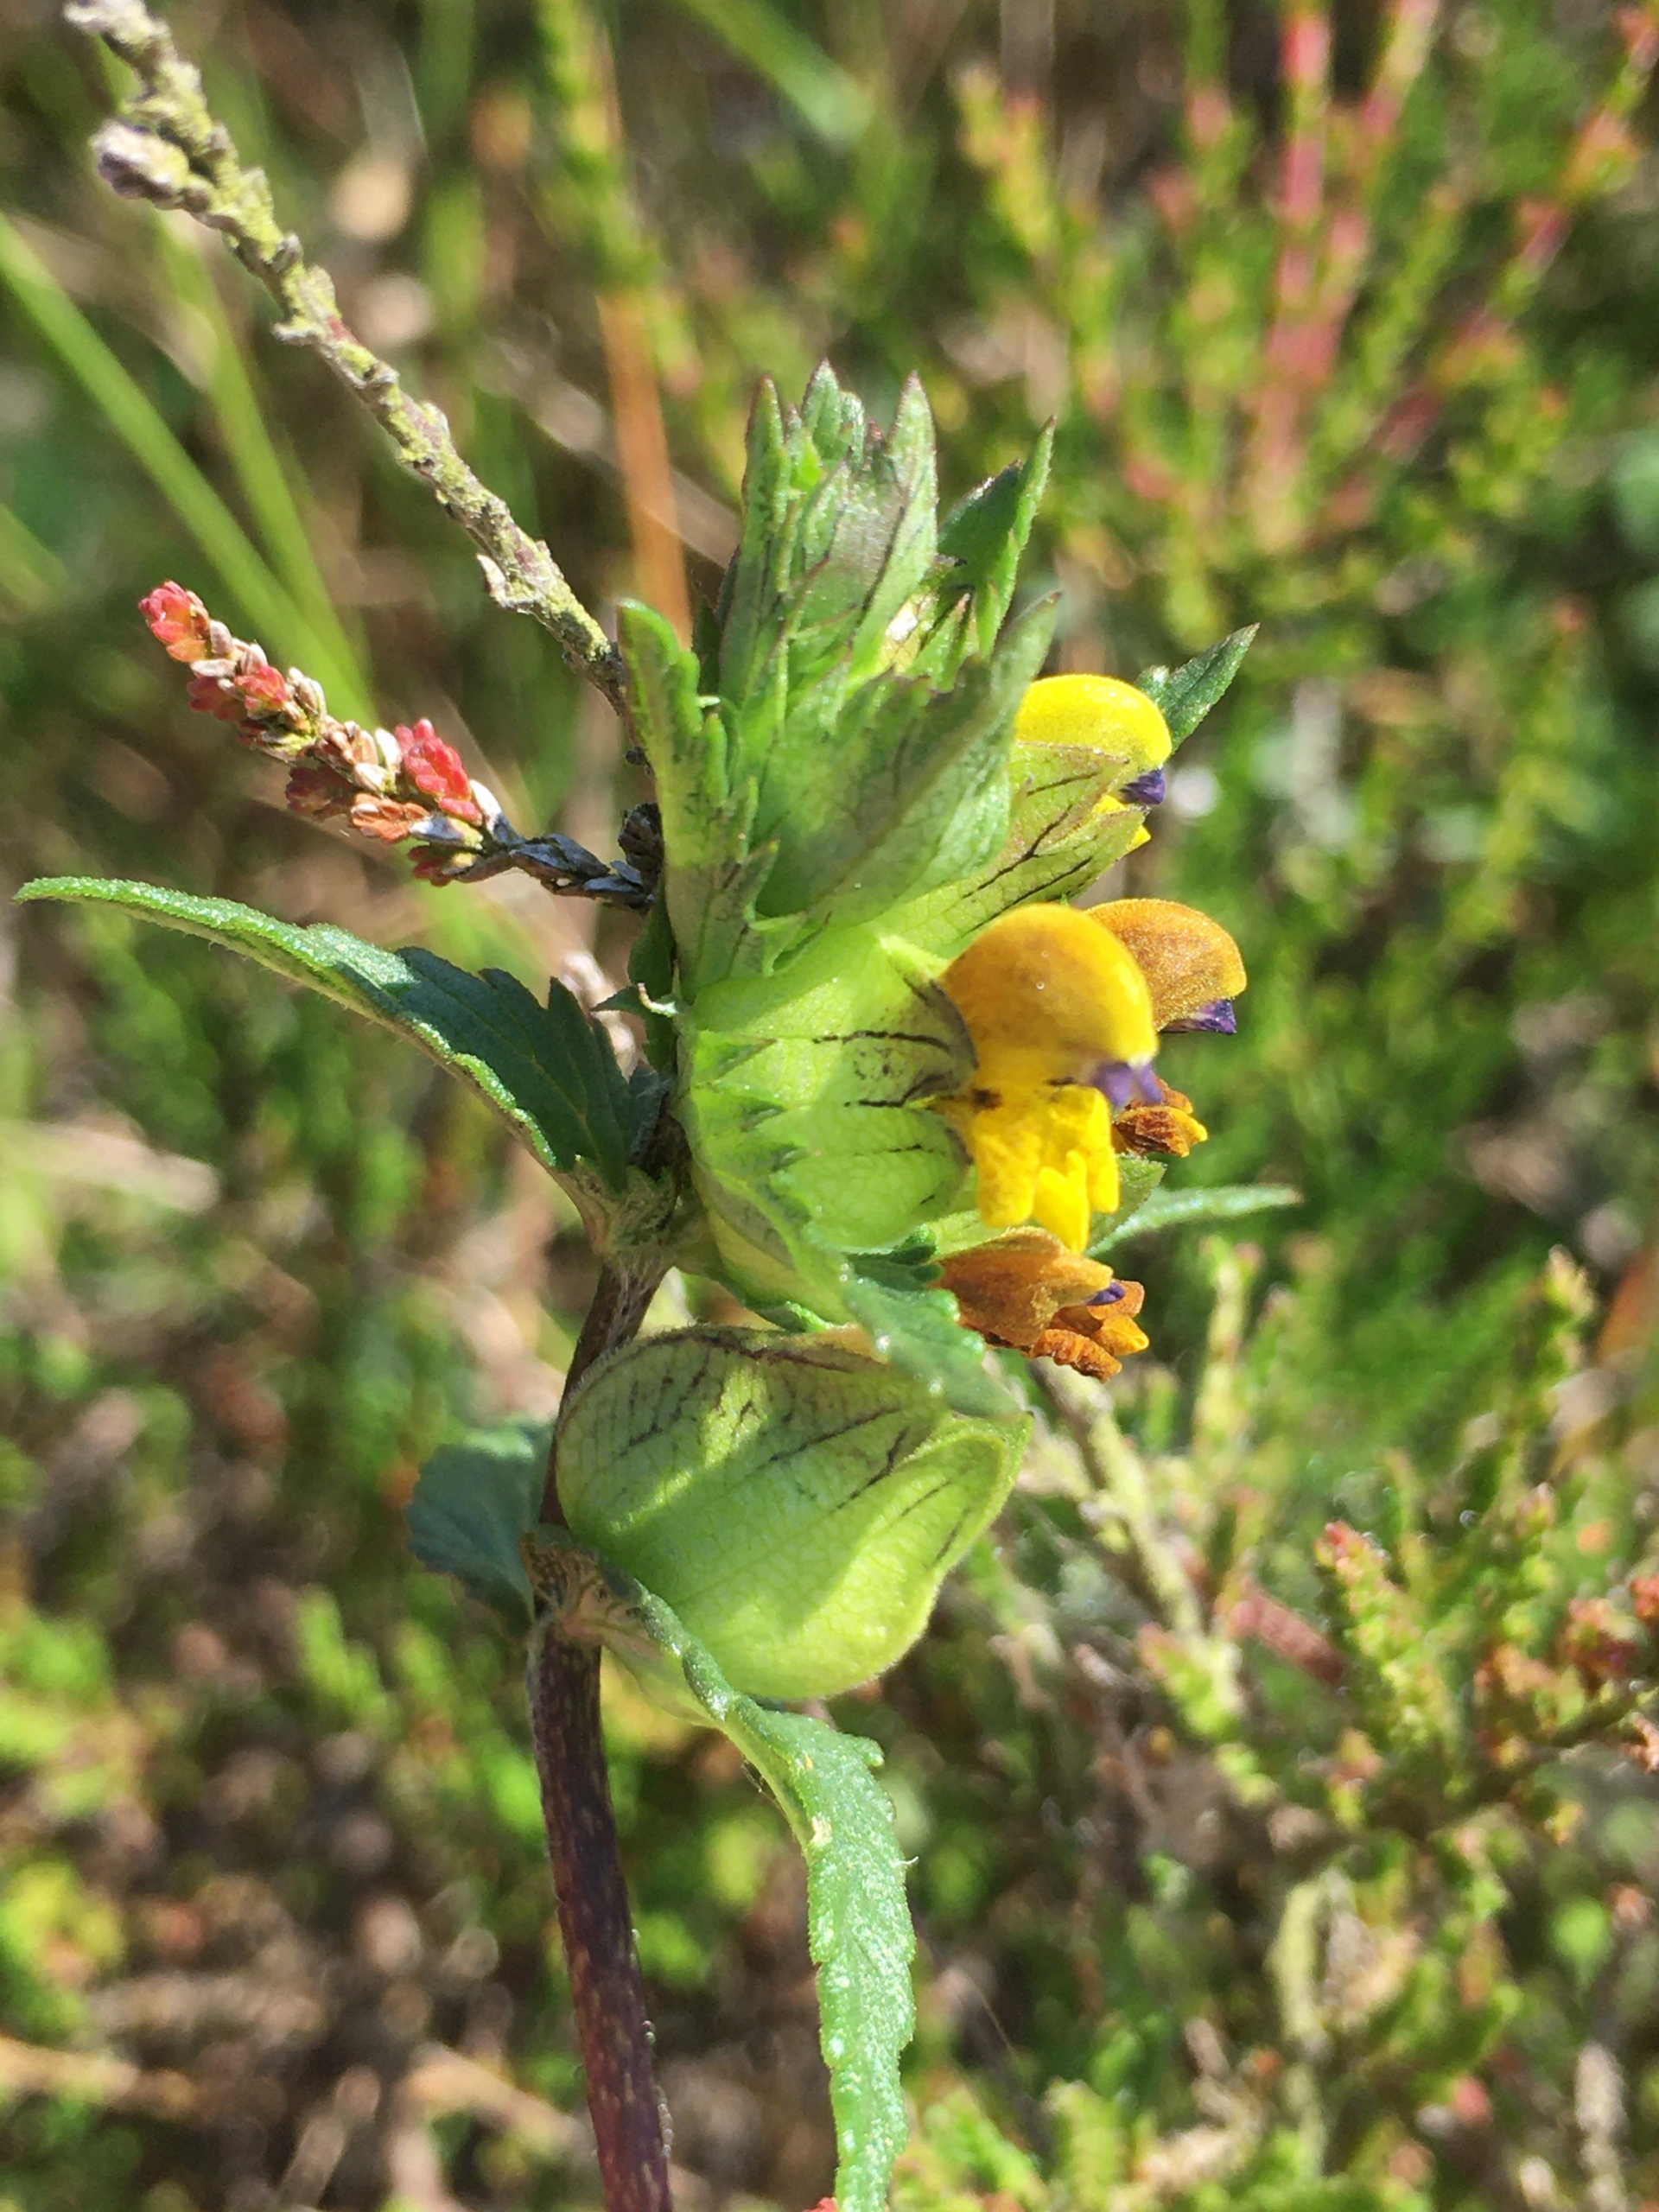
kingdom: Plantae
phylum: Tracheophyta
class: Magnoliopsida
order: Lamiales
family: Orobanchaceae
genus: Rhinanthus
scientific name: Rhinanthus
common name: Stor skjaller
